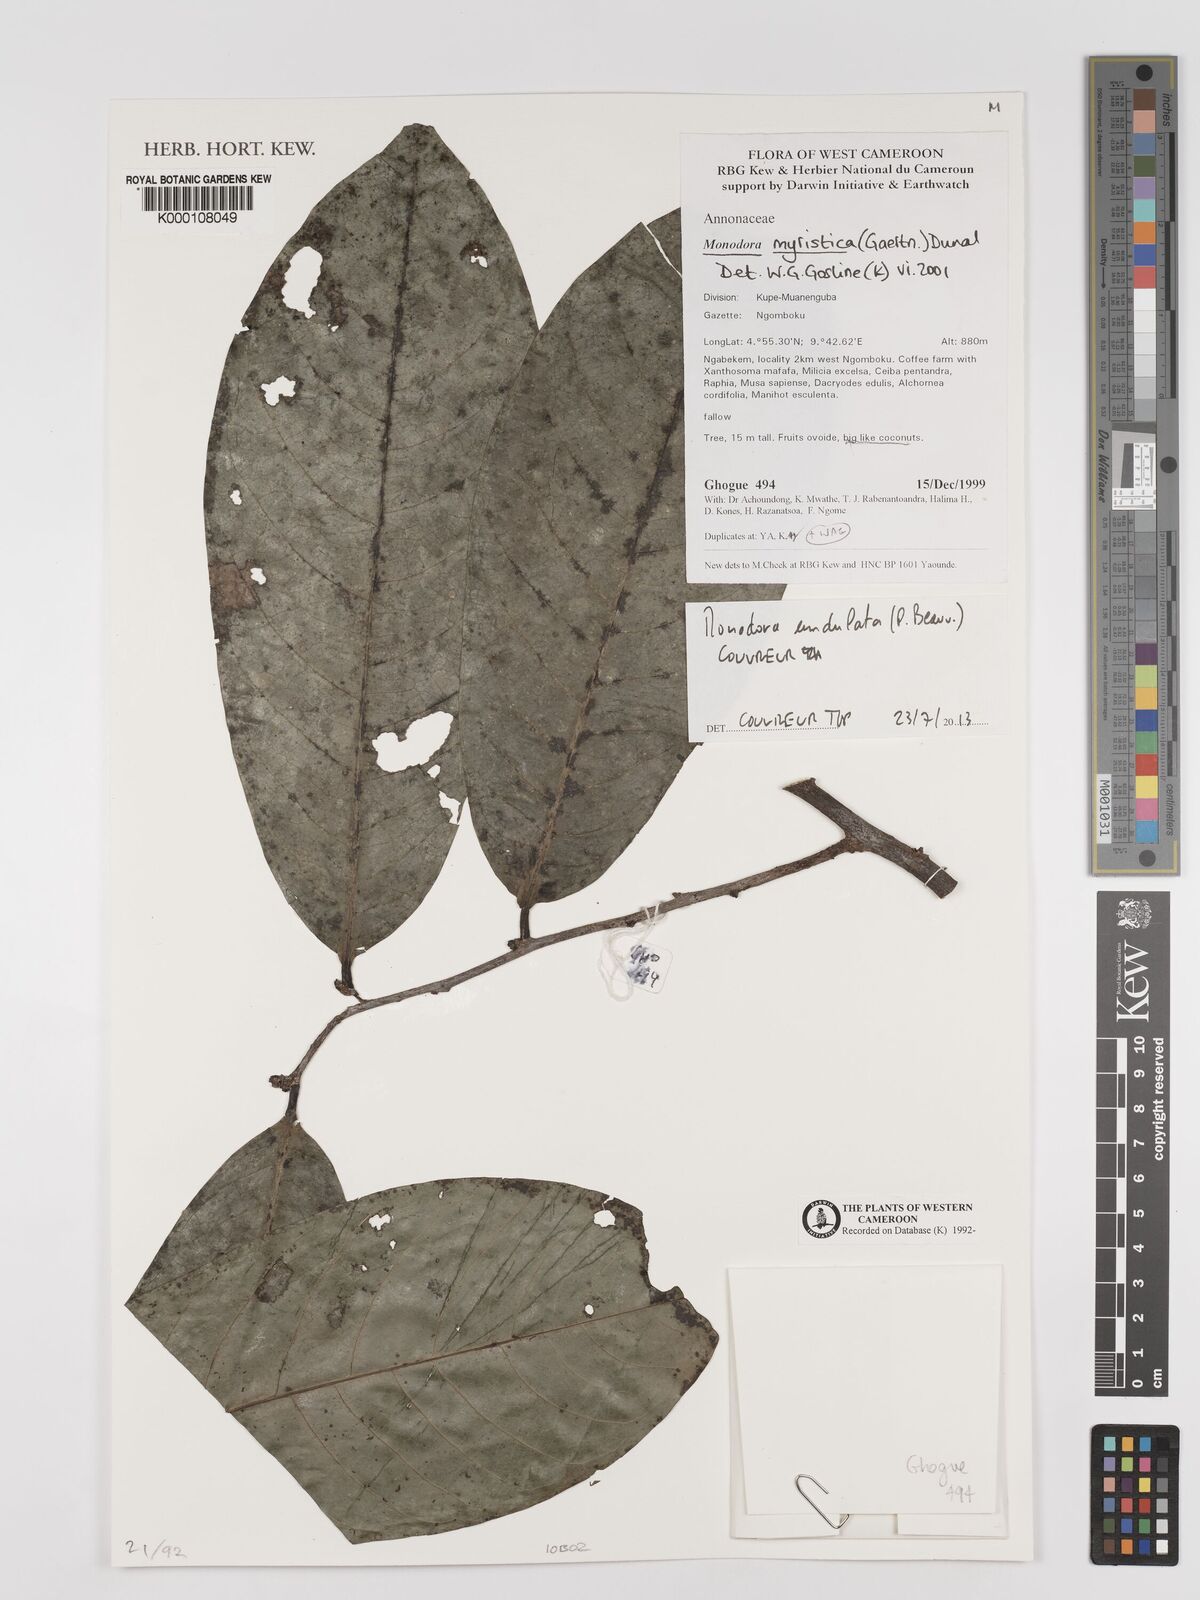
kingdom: Plantae
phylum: Tracheophyta
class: Magnoliopsida
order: Magnoliales
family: Annonaceae
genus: Monodora
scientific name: Monodora myristica
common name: African nutmeg
